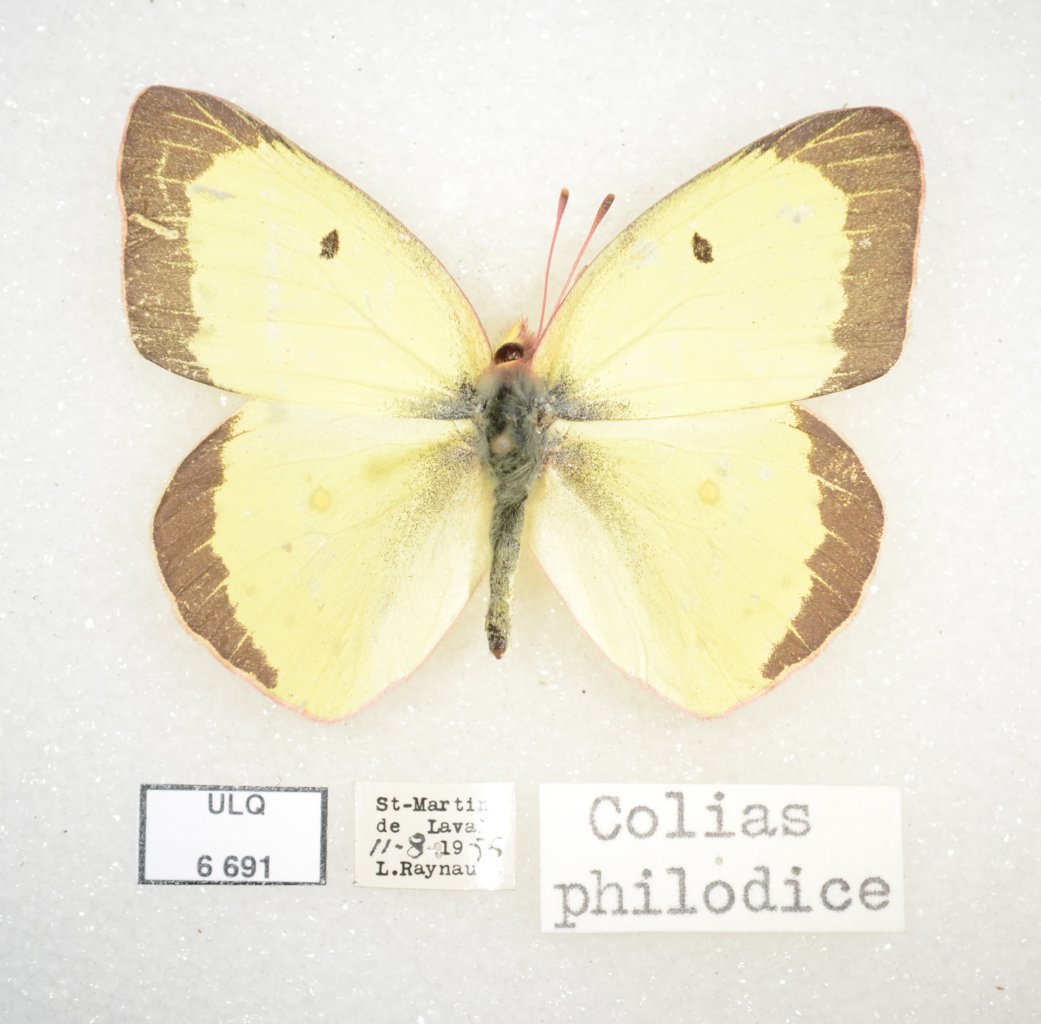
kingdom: Animalia
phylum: Arthropoda
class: Insecta
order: Lepidoptera
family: Pieridae
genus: Colias
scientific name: Colias philodice
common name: Clouded Sulphur
